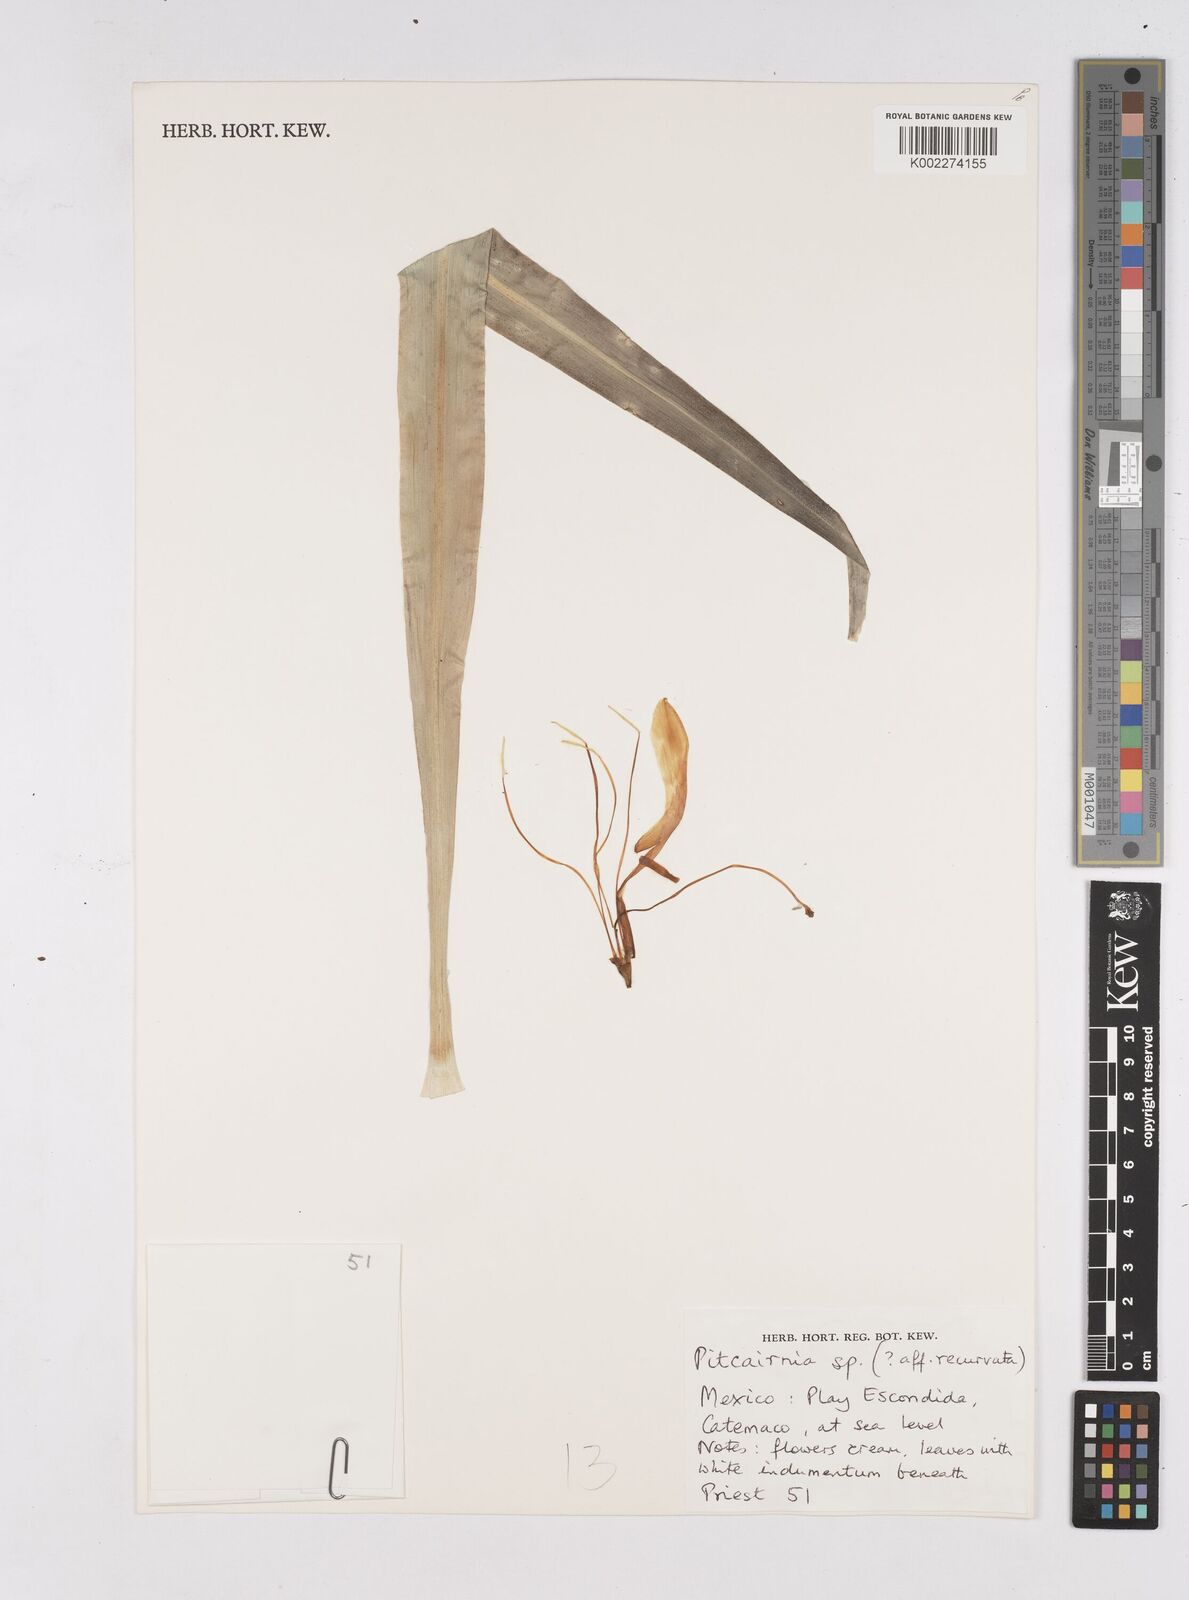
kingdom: Plantae
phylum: Tracheophyta
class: Liliopsida
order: Poales
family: Bromeliaceae
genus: Pitcairnia
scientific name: Pitcairnia
